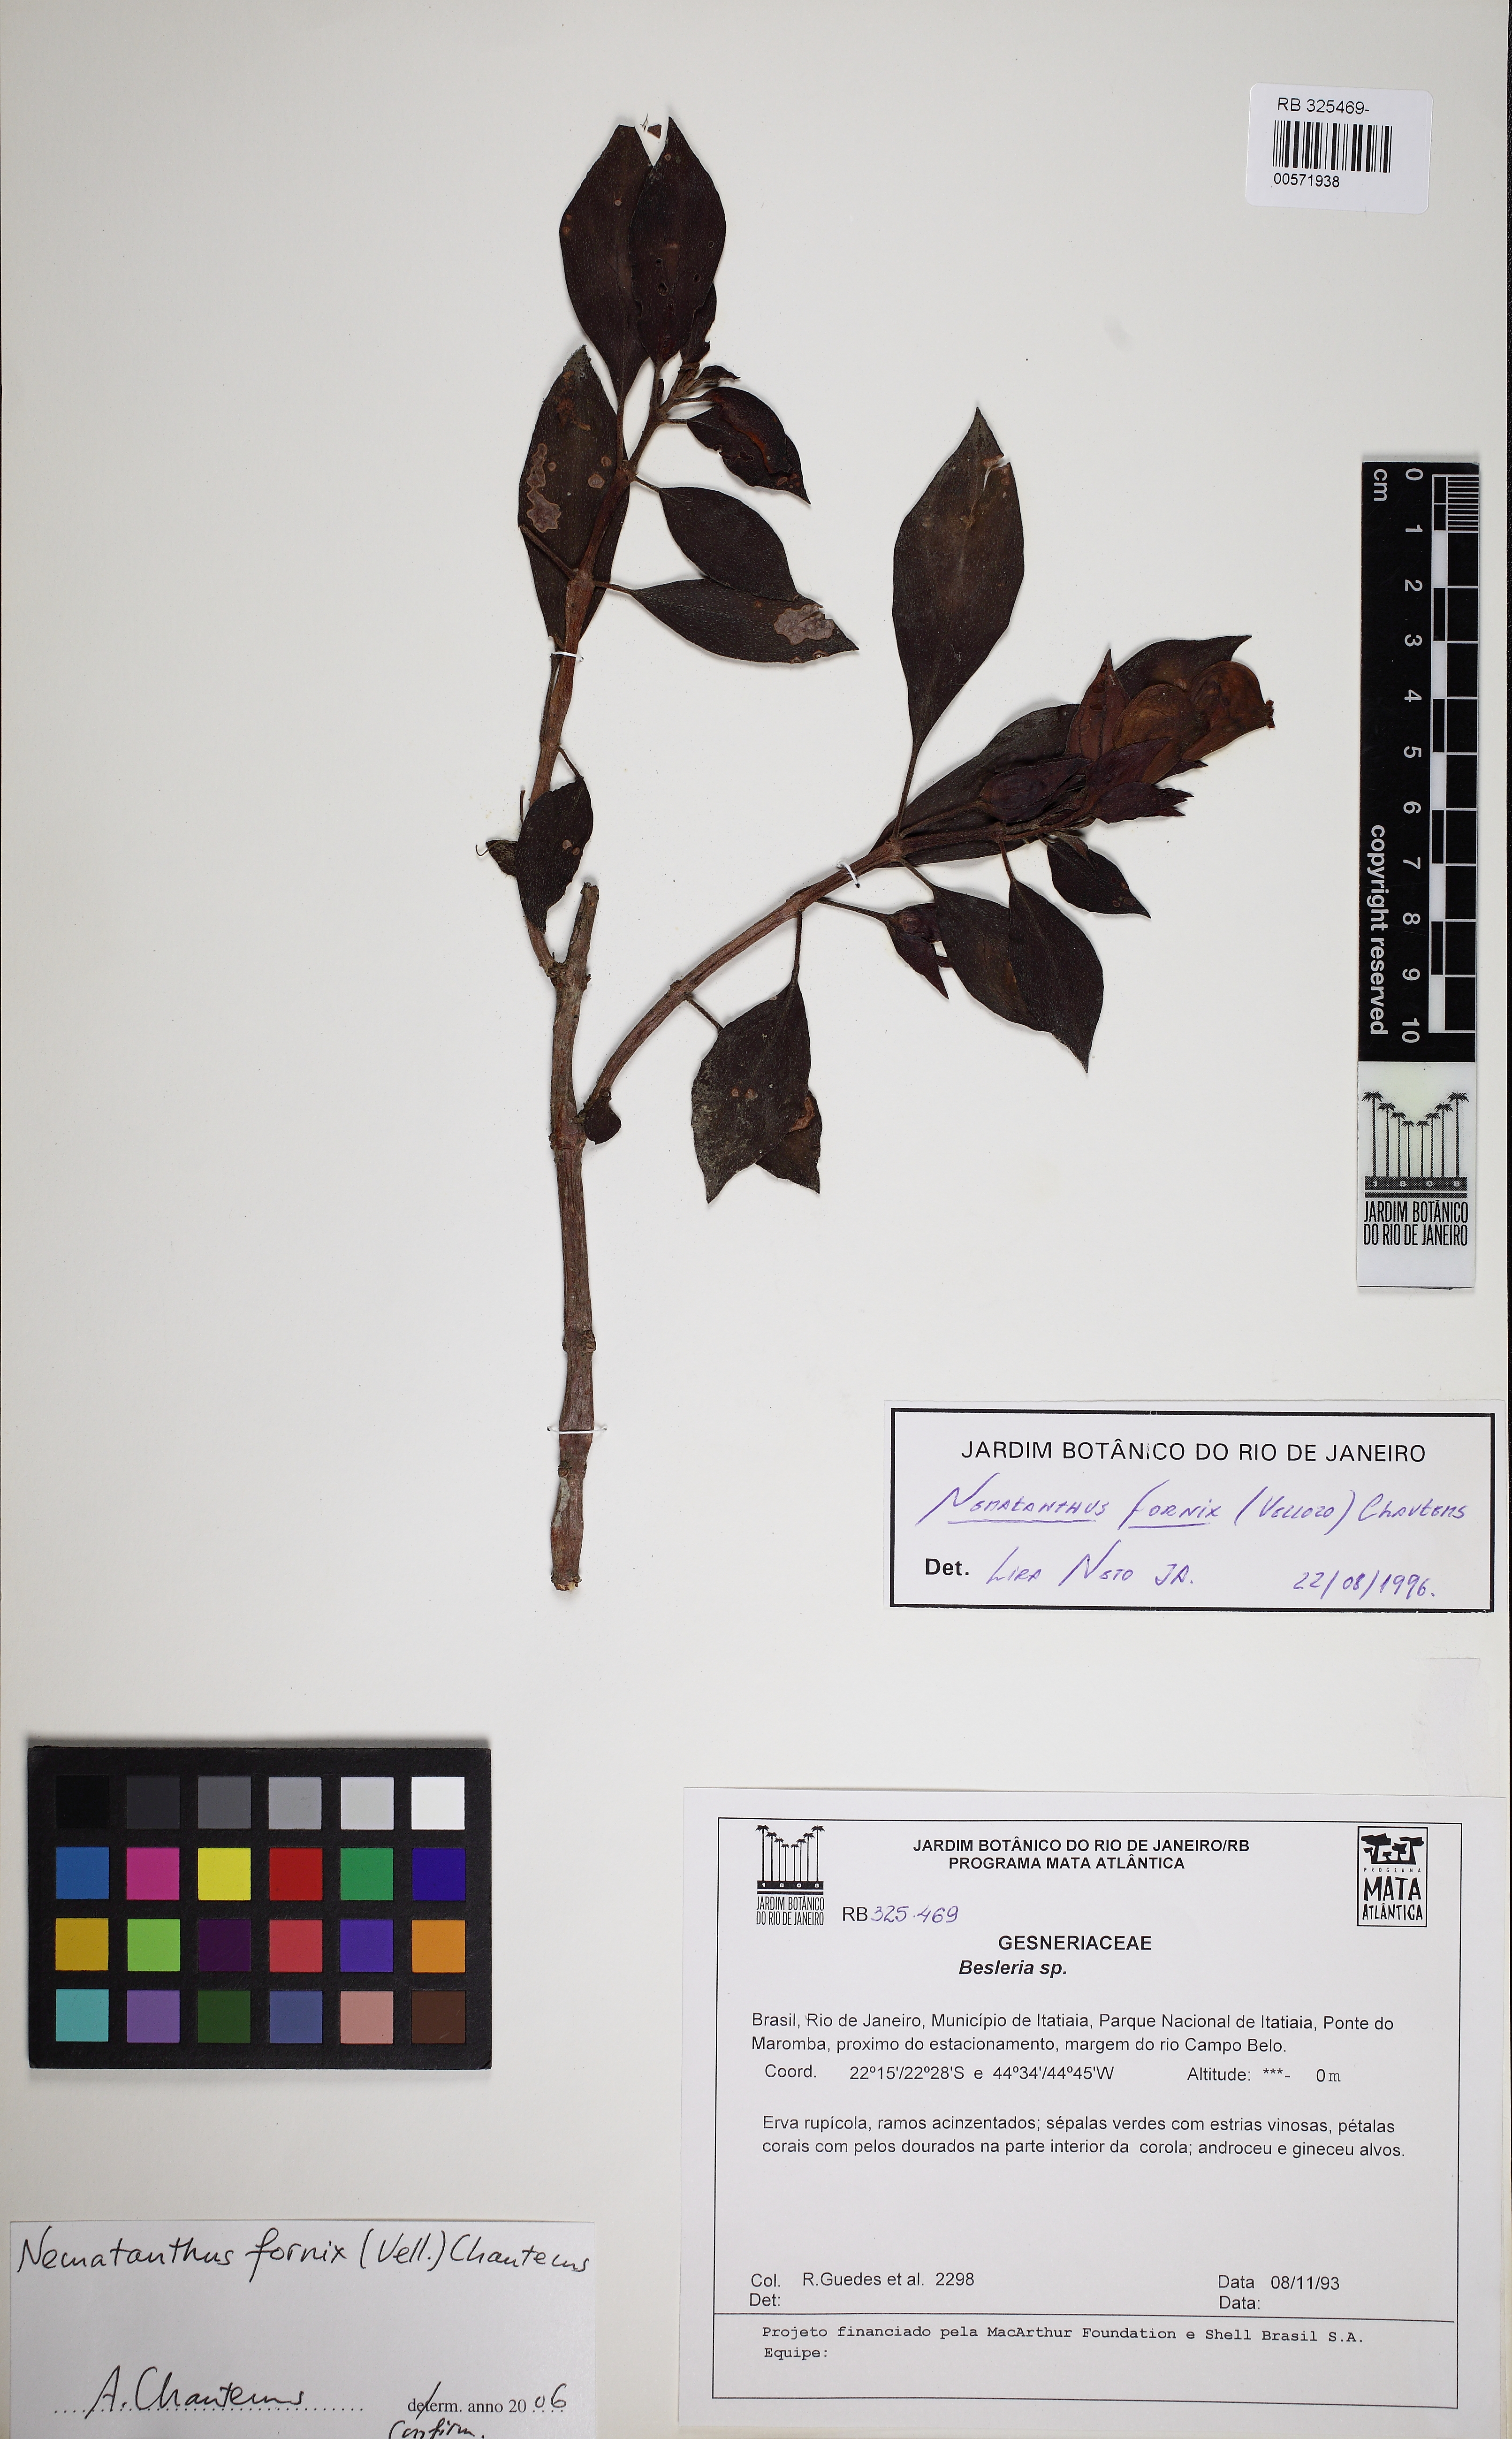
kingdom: Plantae
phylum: Tracheophyta
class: Magnoliopsida
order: Lamiales
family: Gesneriaceae
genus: Nematanthus
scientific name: Nematanthus fornix
